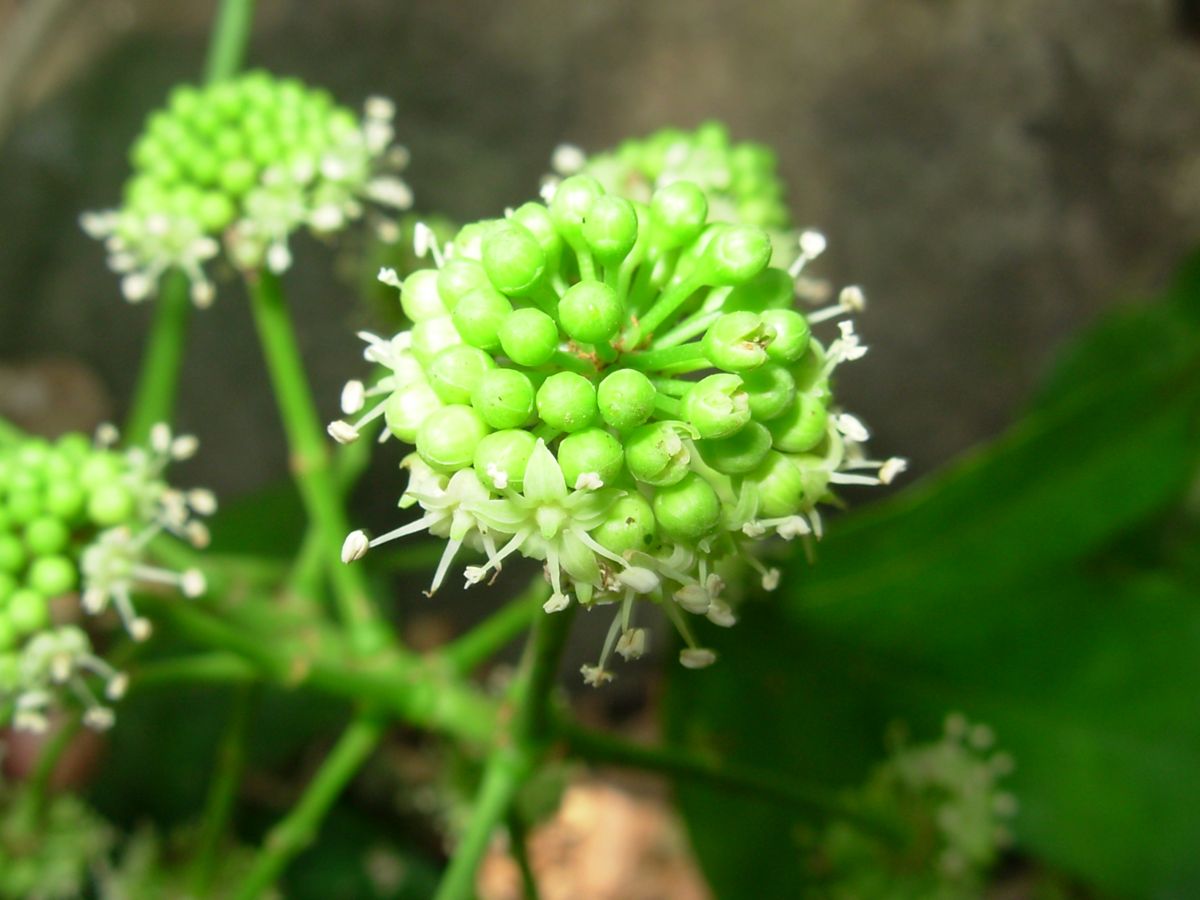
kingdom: Plantae
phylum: Tracheophyta
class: Magnoliopsida
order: Apiales
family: Araliaceae
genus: Dendropanax
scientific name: Dendropanax arboreus
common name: Potato-wood
